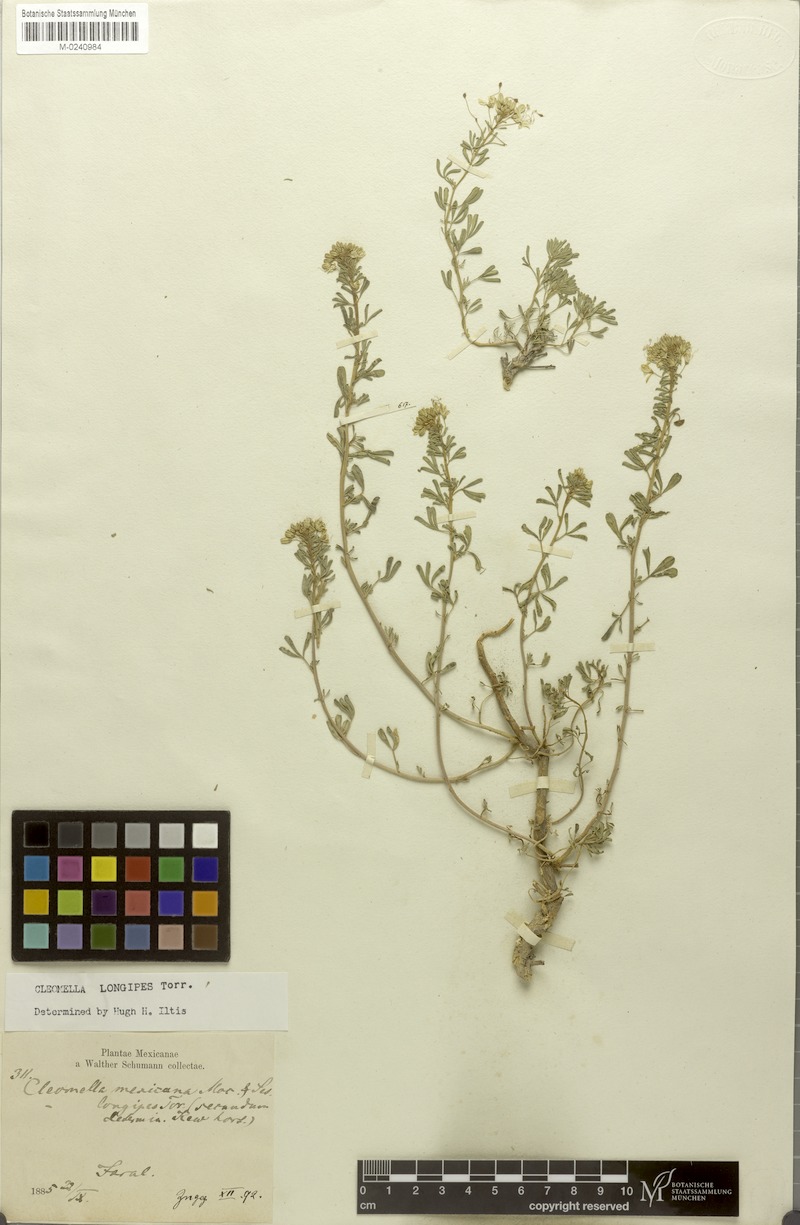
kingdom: Plantae
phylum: Tracheophyta
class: Magnoliopsida
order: Brassicales
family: Cleomaceae
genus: Cleomella
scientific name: Cleomella perennis
